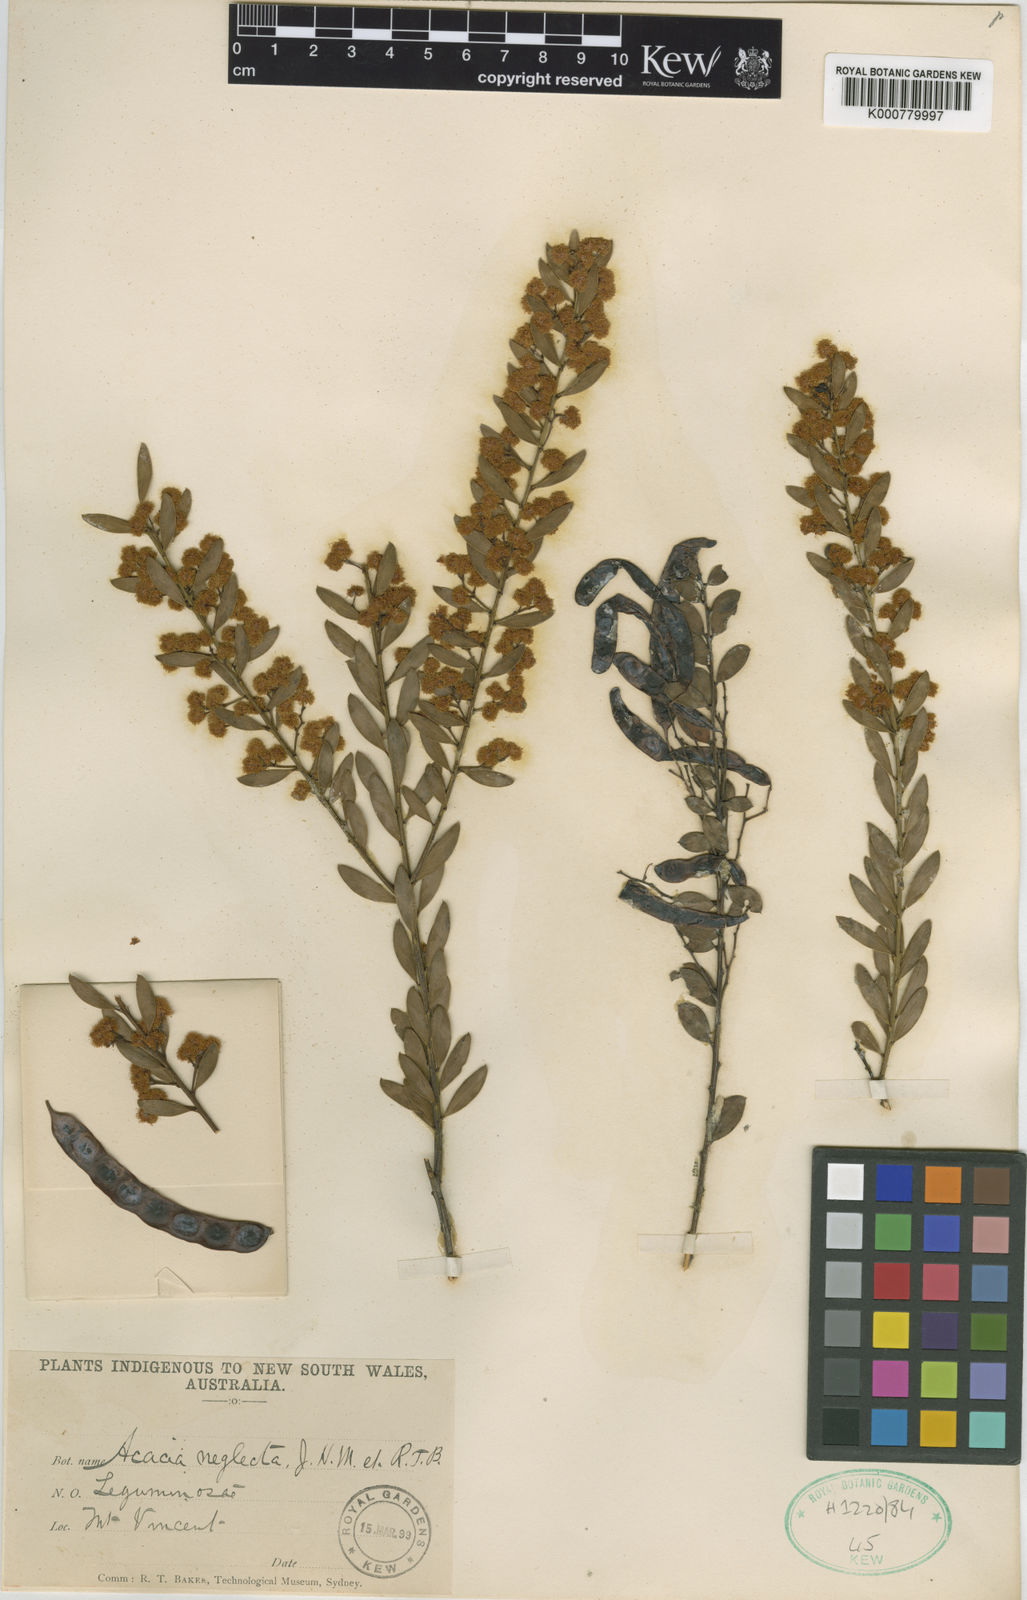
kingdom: Plantae
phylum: Tracheophyta
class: Magnoliopsida
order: Fabales
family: Fabaceae
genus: Acacia
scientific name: Acacia buxifolia
